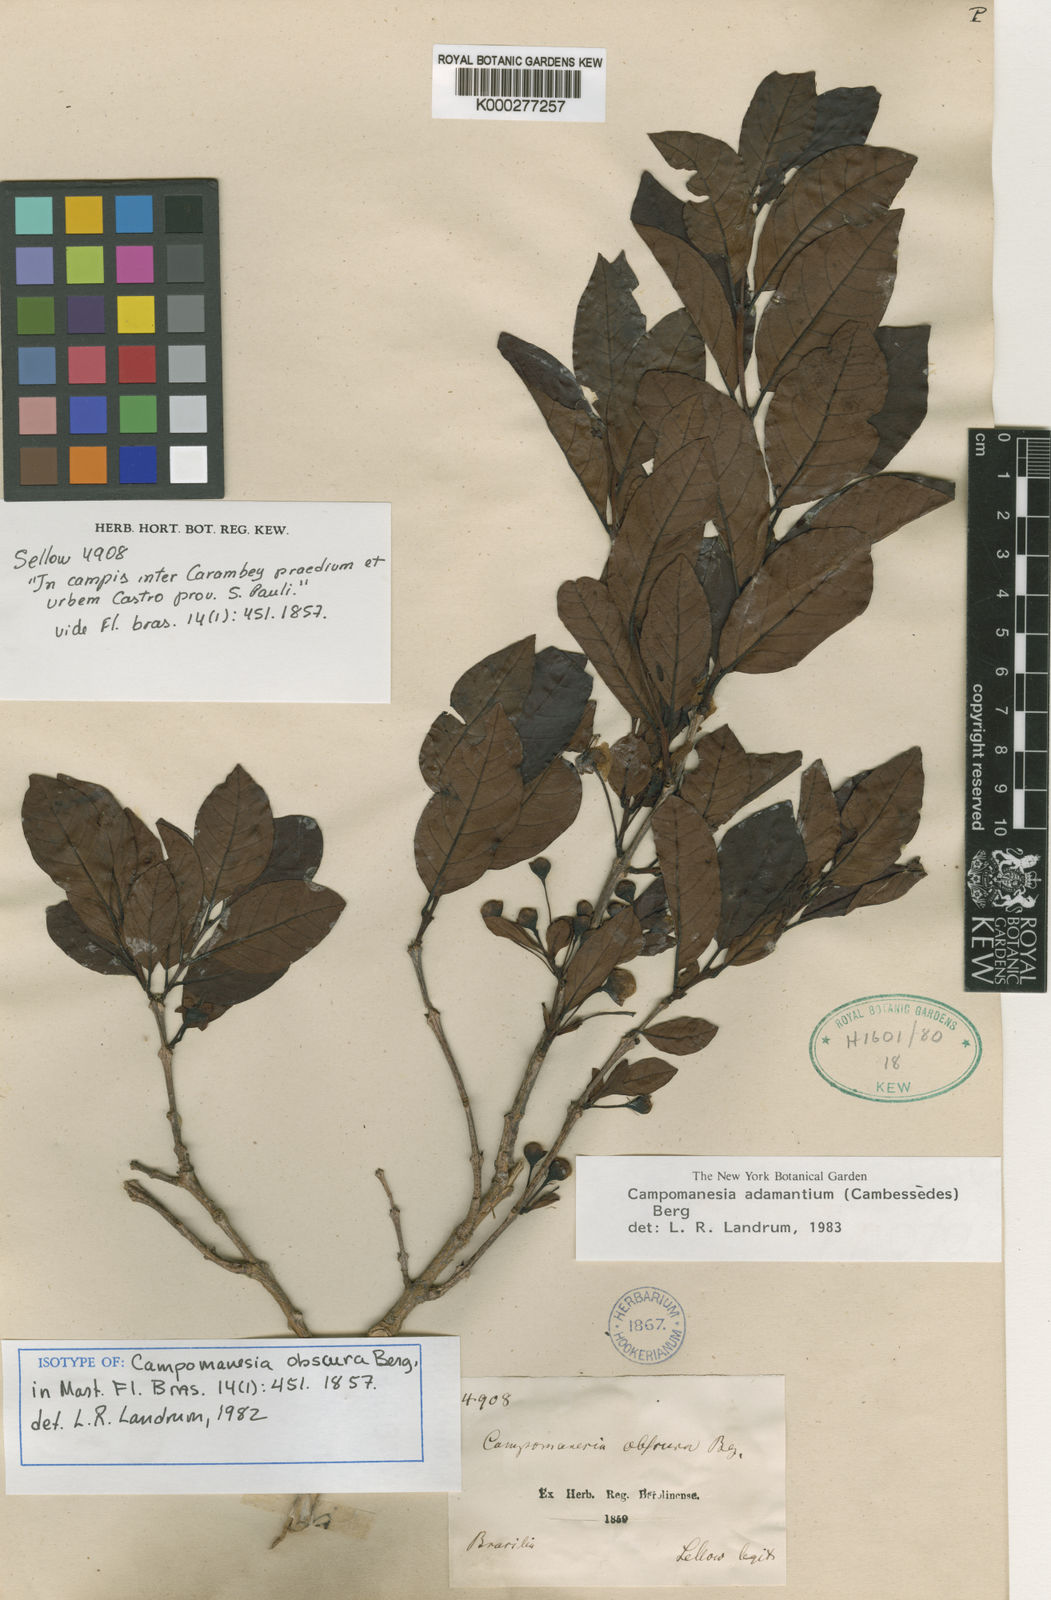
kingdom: Plantae
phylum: Tracheophyta
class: Magnoliopsida
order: Myrtales
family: Myrtaceae
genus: Campomanesia
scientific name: Campomanesia adamantium
